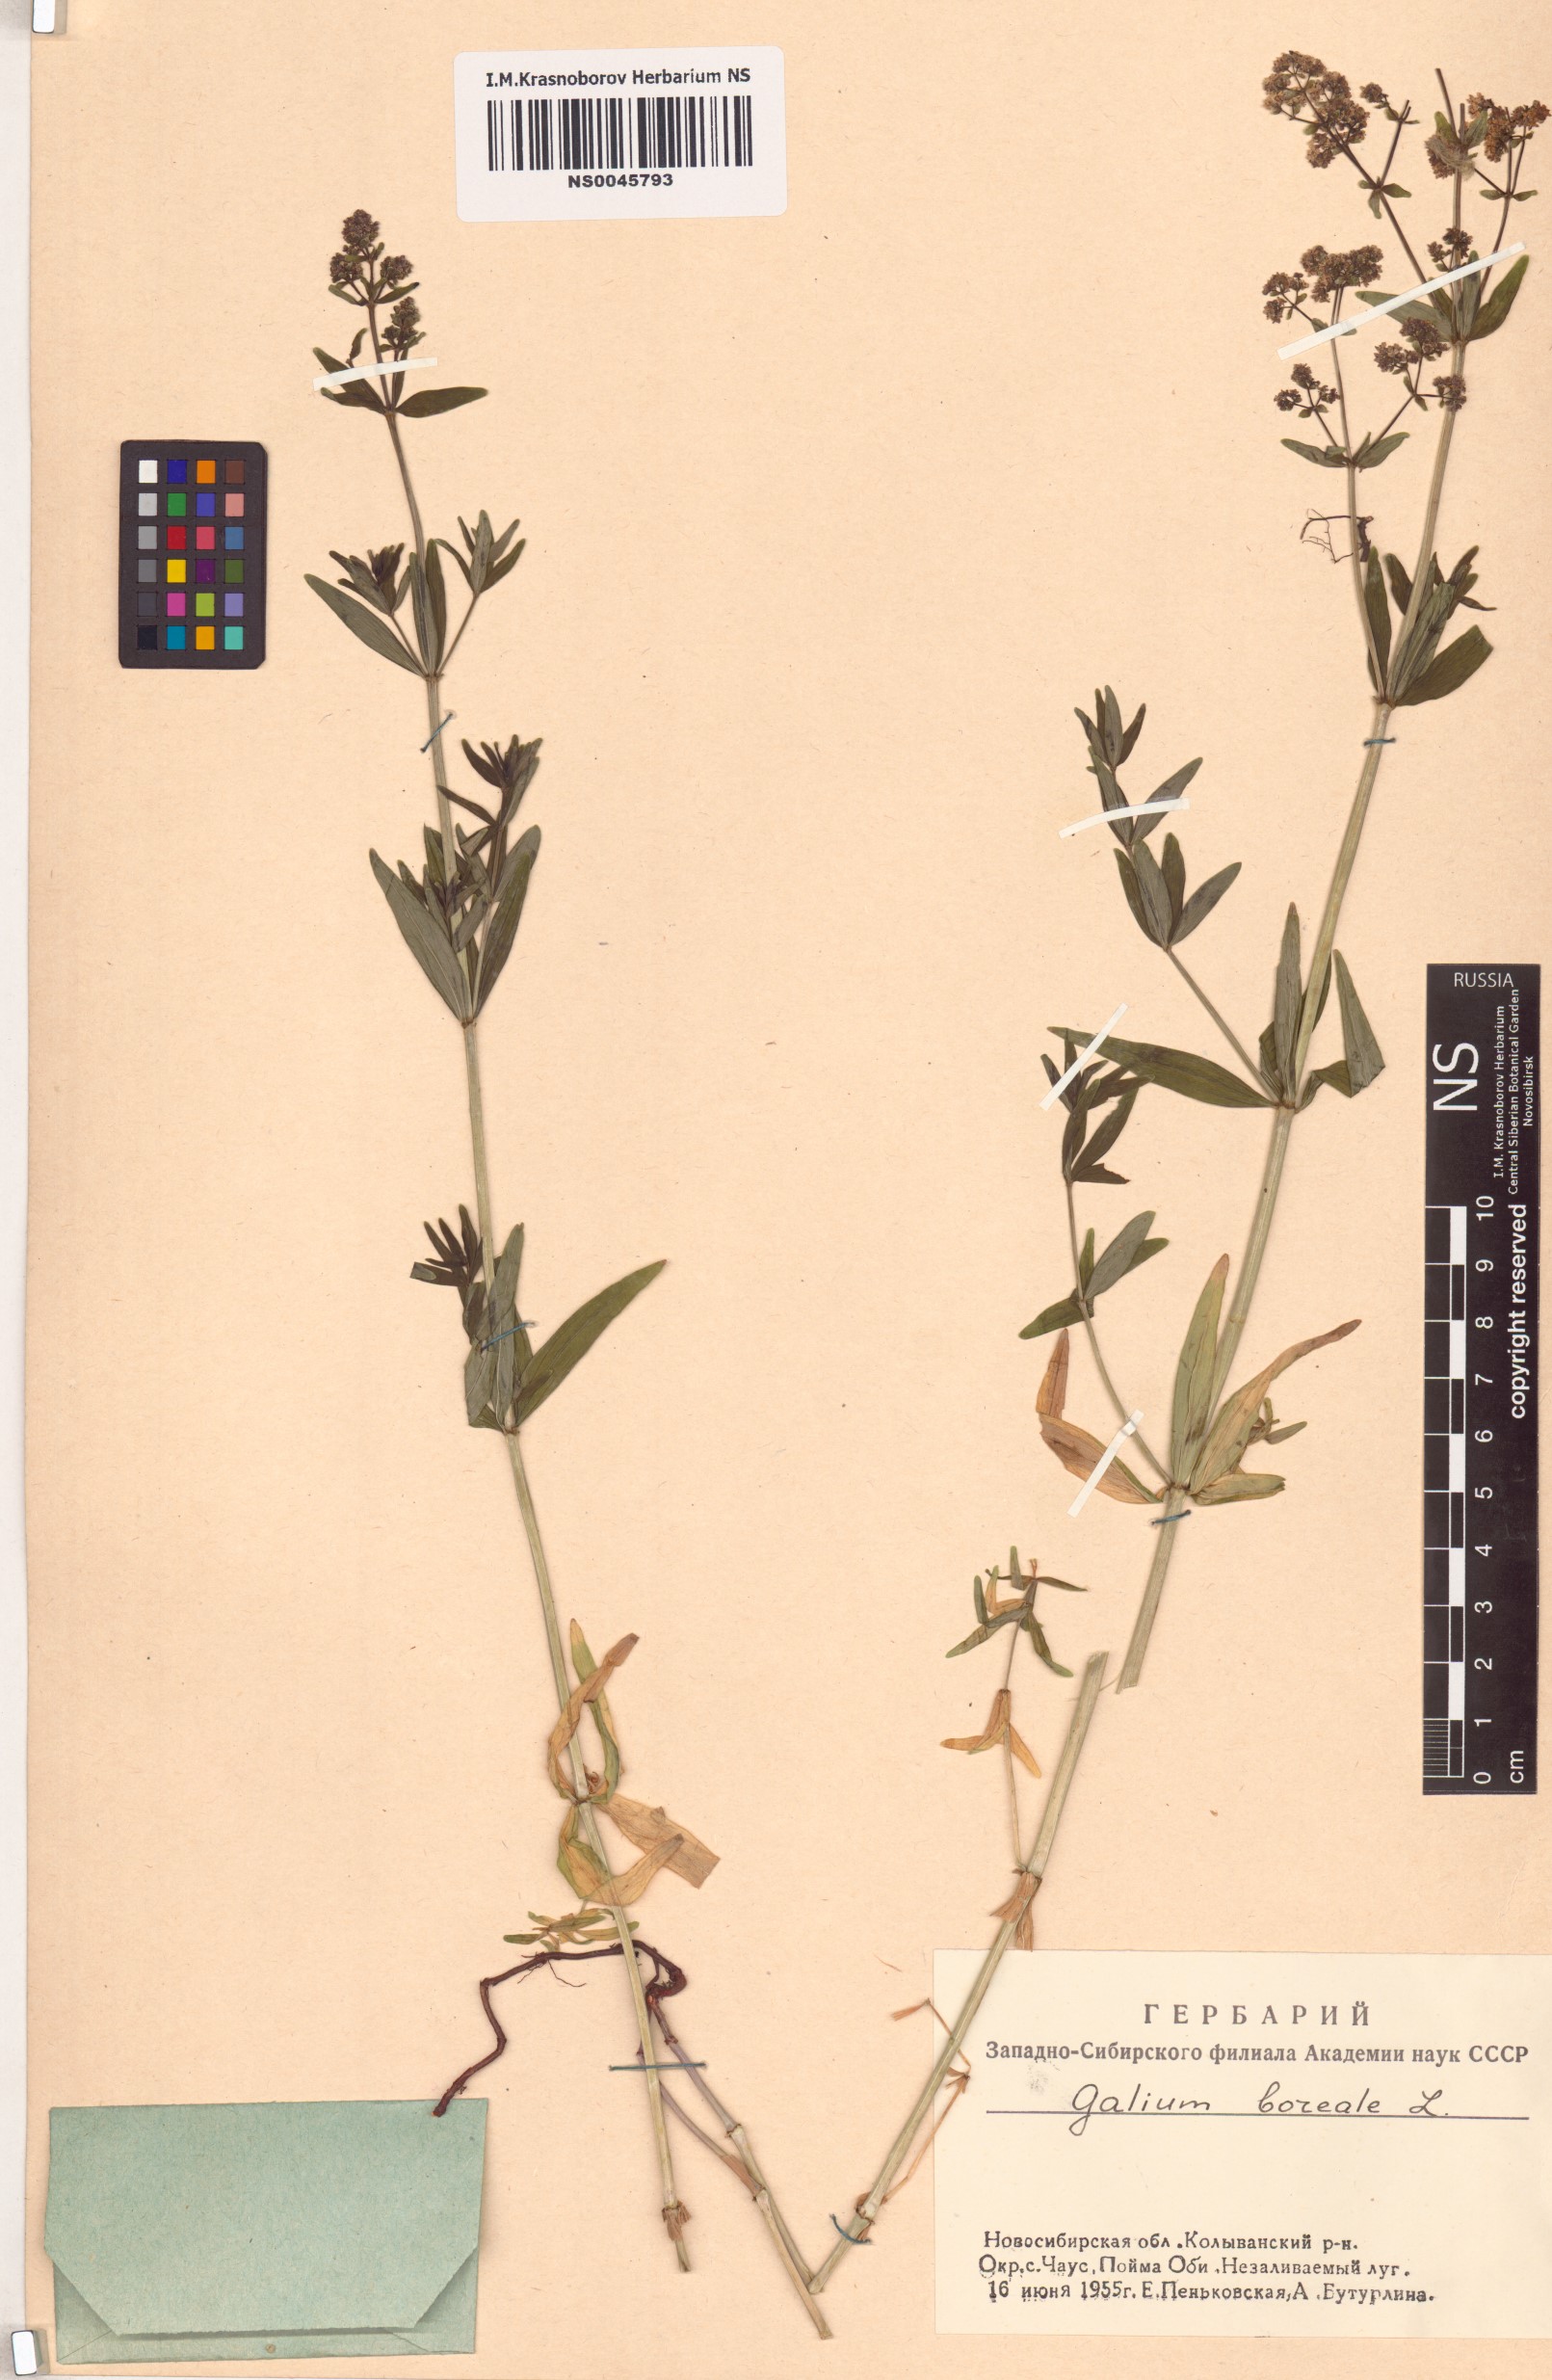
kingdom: Plantae
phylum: Tracheophyta
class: Magnoliopsida
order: Gentianales
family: Rubiaceae
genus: Galium
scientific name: Galium boreale
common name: Northern bedstraw
